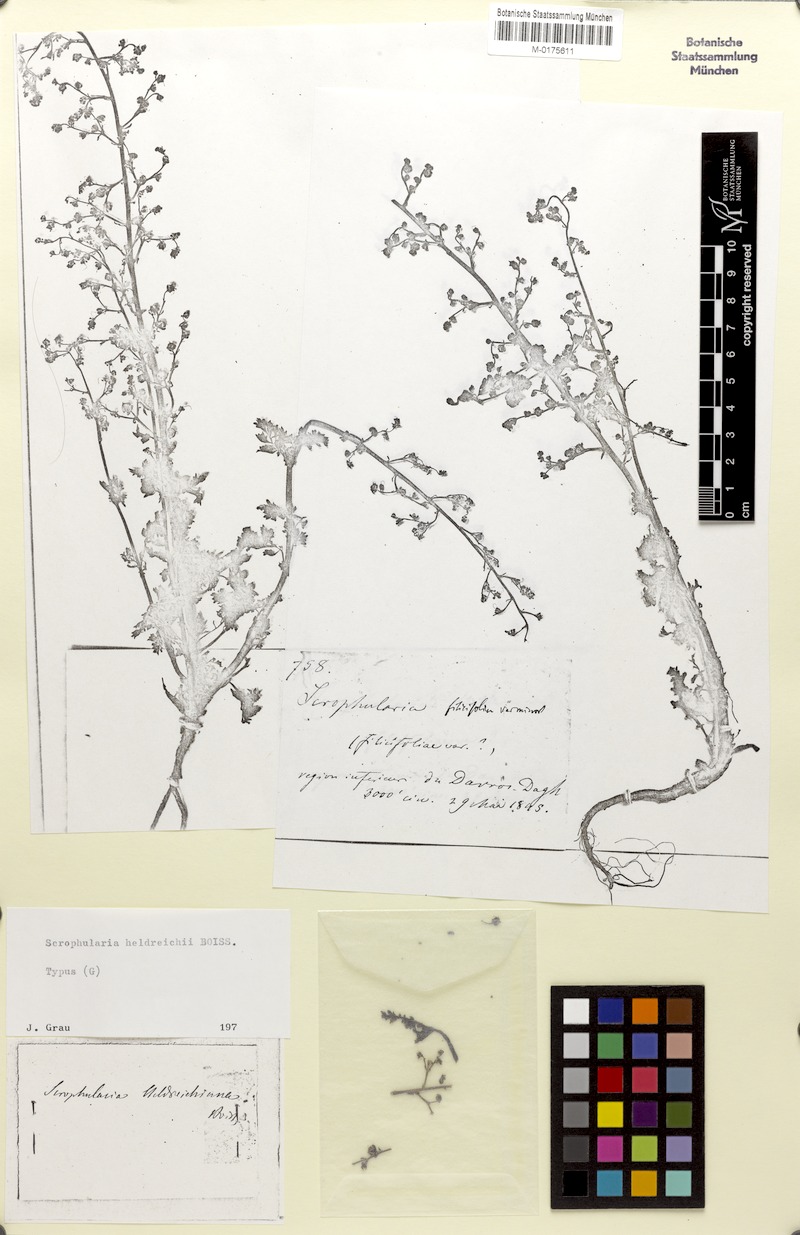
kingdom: Plantae
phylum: Tracheophyta
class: Magnoliopsida
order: Lamiales
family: Scrophulariaceae
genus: Scrophularia
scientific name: Scrophularia canina
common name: French figwort
